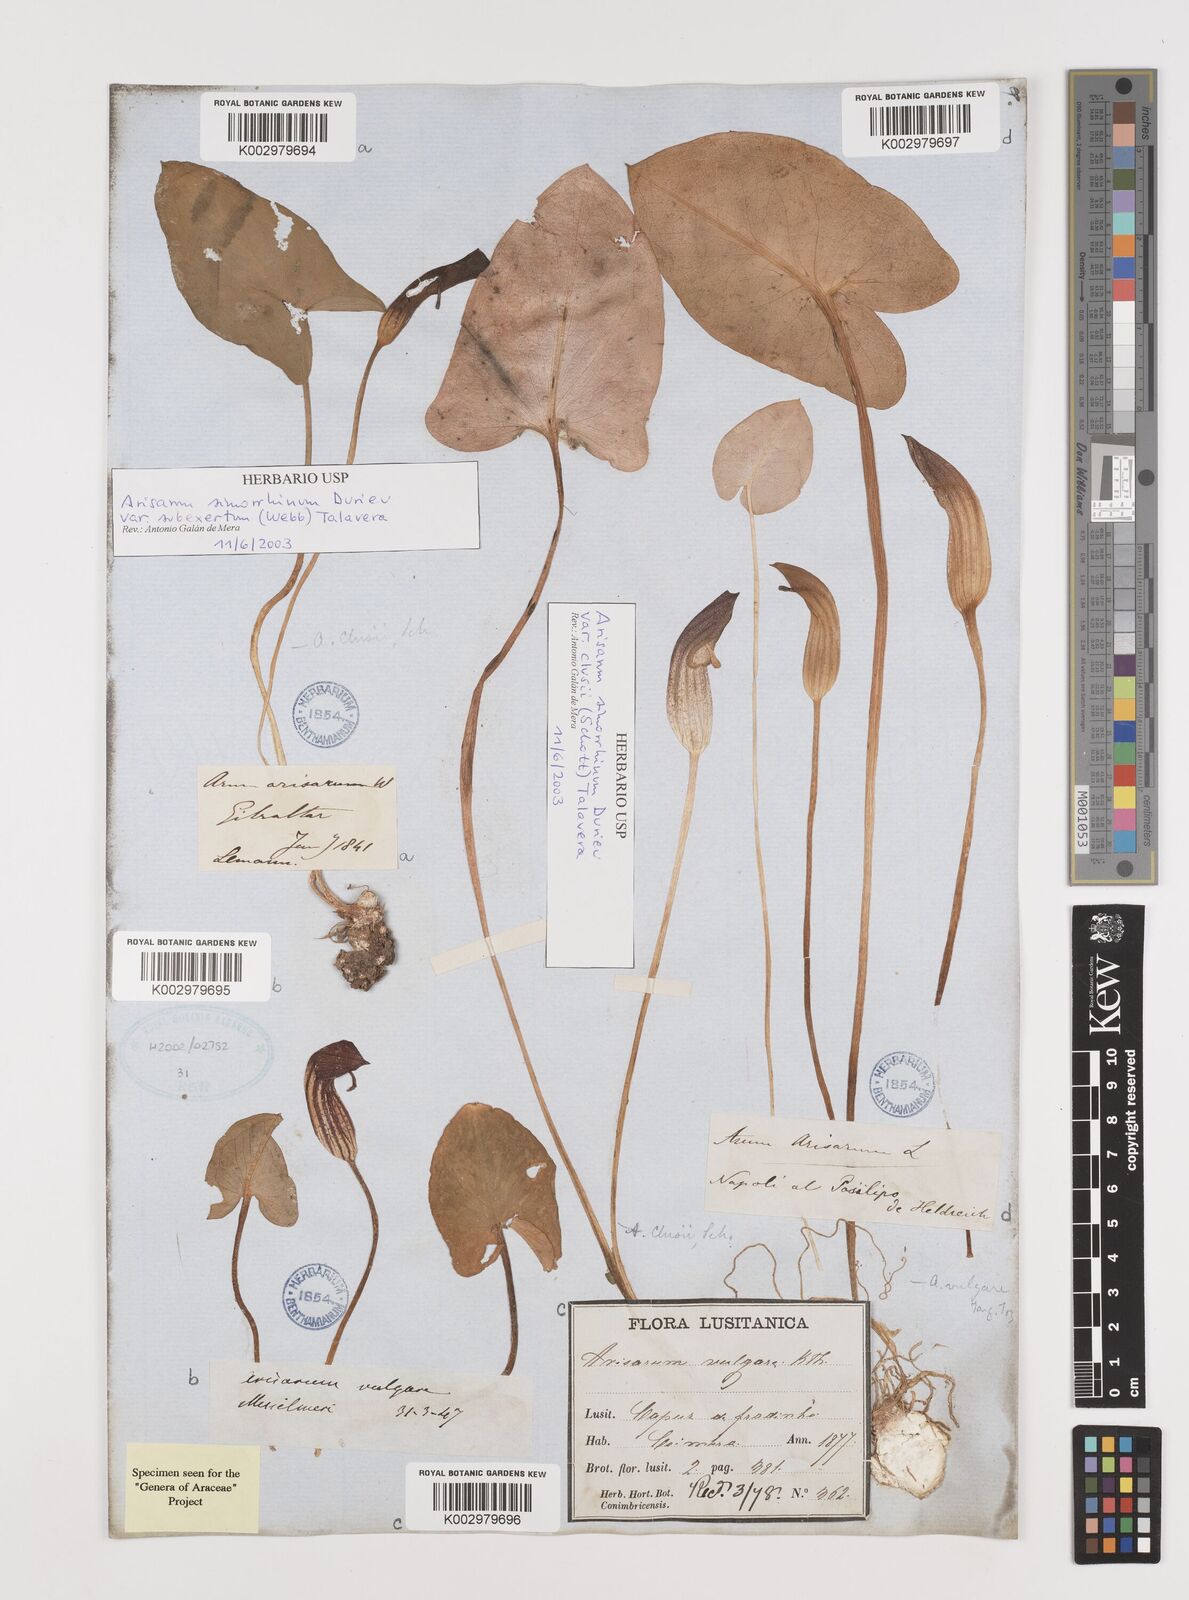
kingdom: Plantae
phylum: Tracheophyta
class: Liliopsida
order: Alismatales
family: Araceae
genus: Arisarum
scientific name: Arisarum simorrhinum
